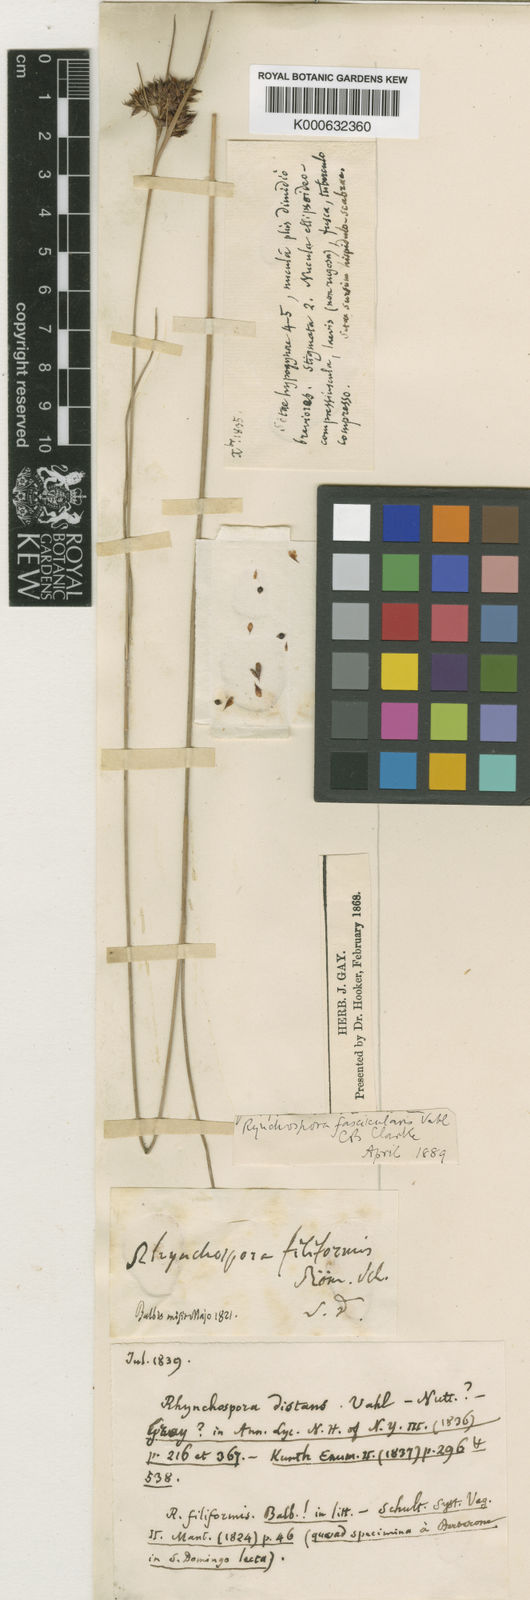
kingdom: Plantae
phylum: Tracheophyta
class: Liliopsida
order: Poales
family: Cyperaceae
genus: Rhynchospora
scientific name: Rhynchospora fascicularis
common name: Fascicled beak sedge
